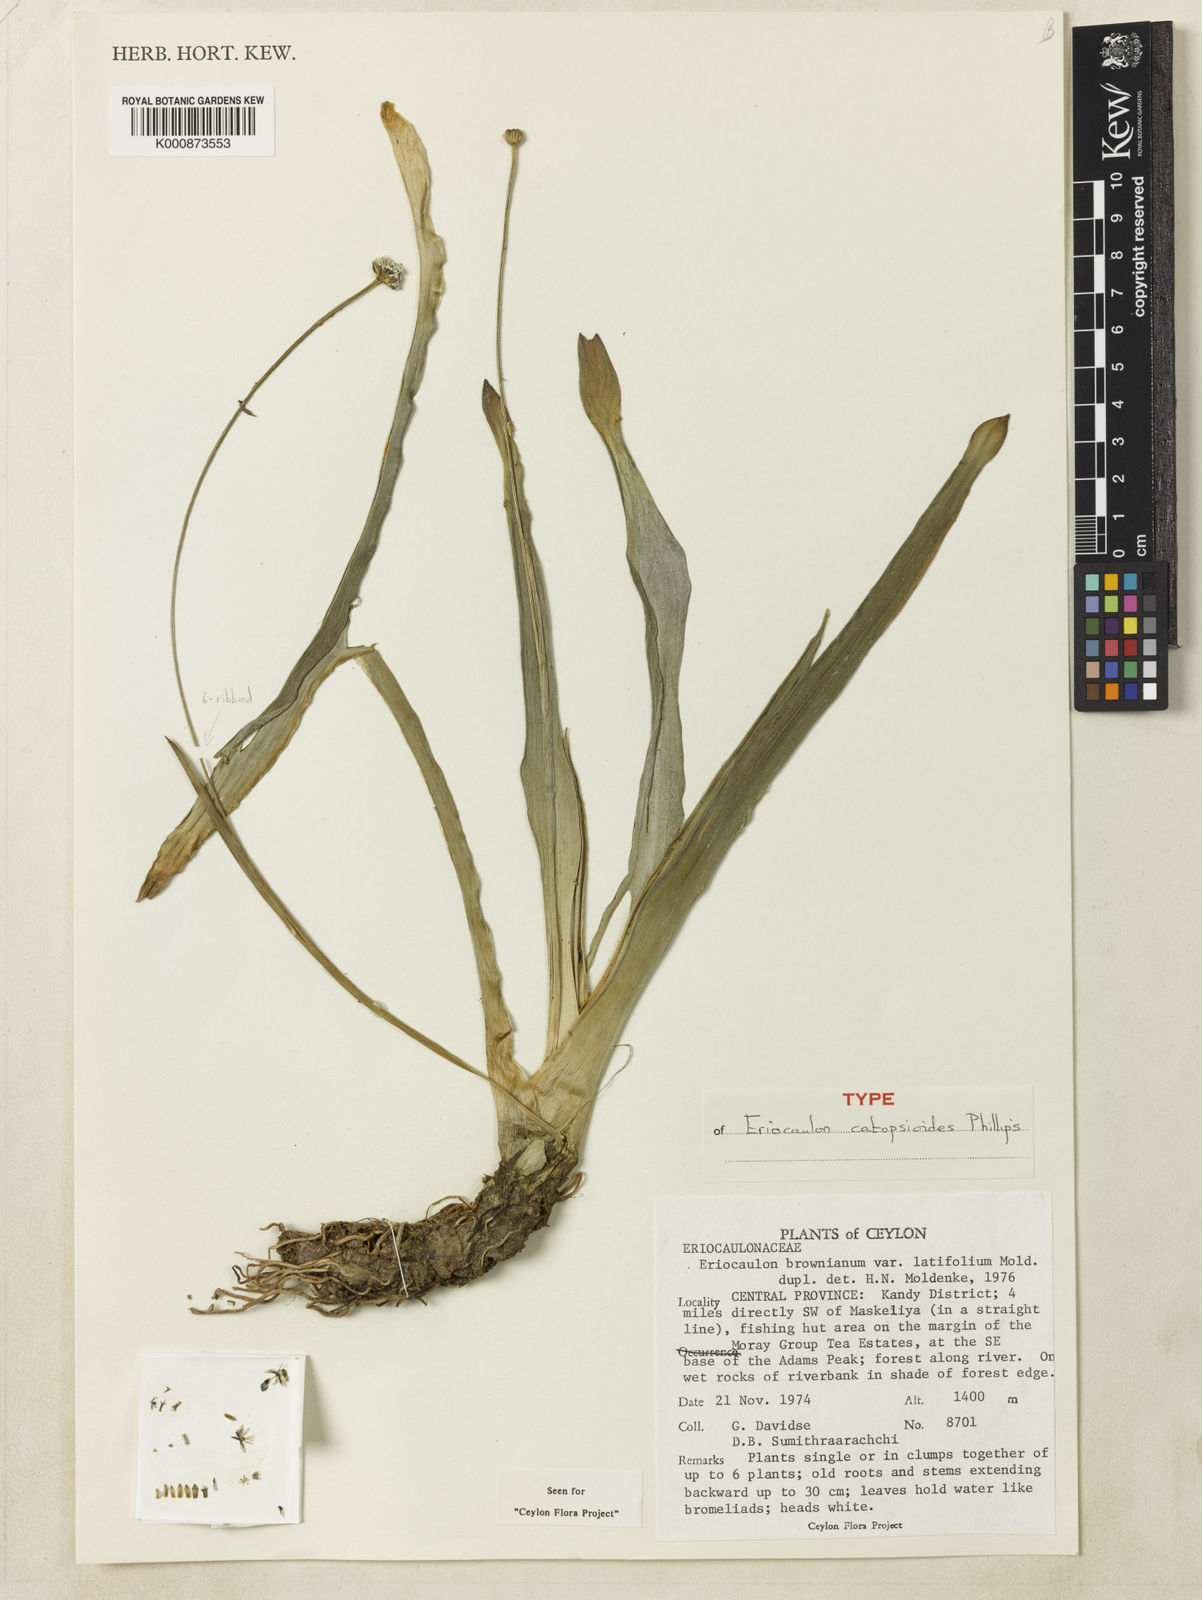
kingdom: Plantae
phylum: Tracheophyta
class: Liliopsida
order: Poales
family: Eriocaulaceae
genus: Eriocaulon
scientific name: Eriocaulon catopsioides
